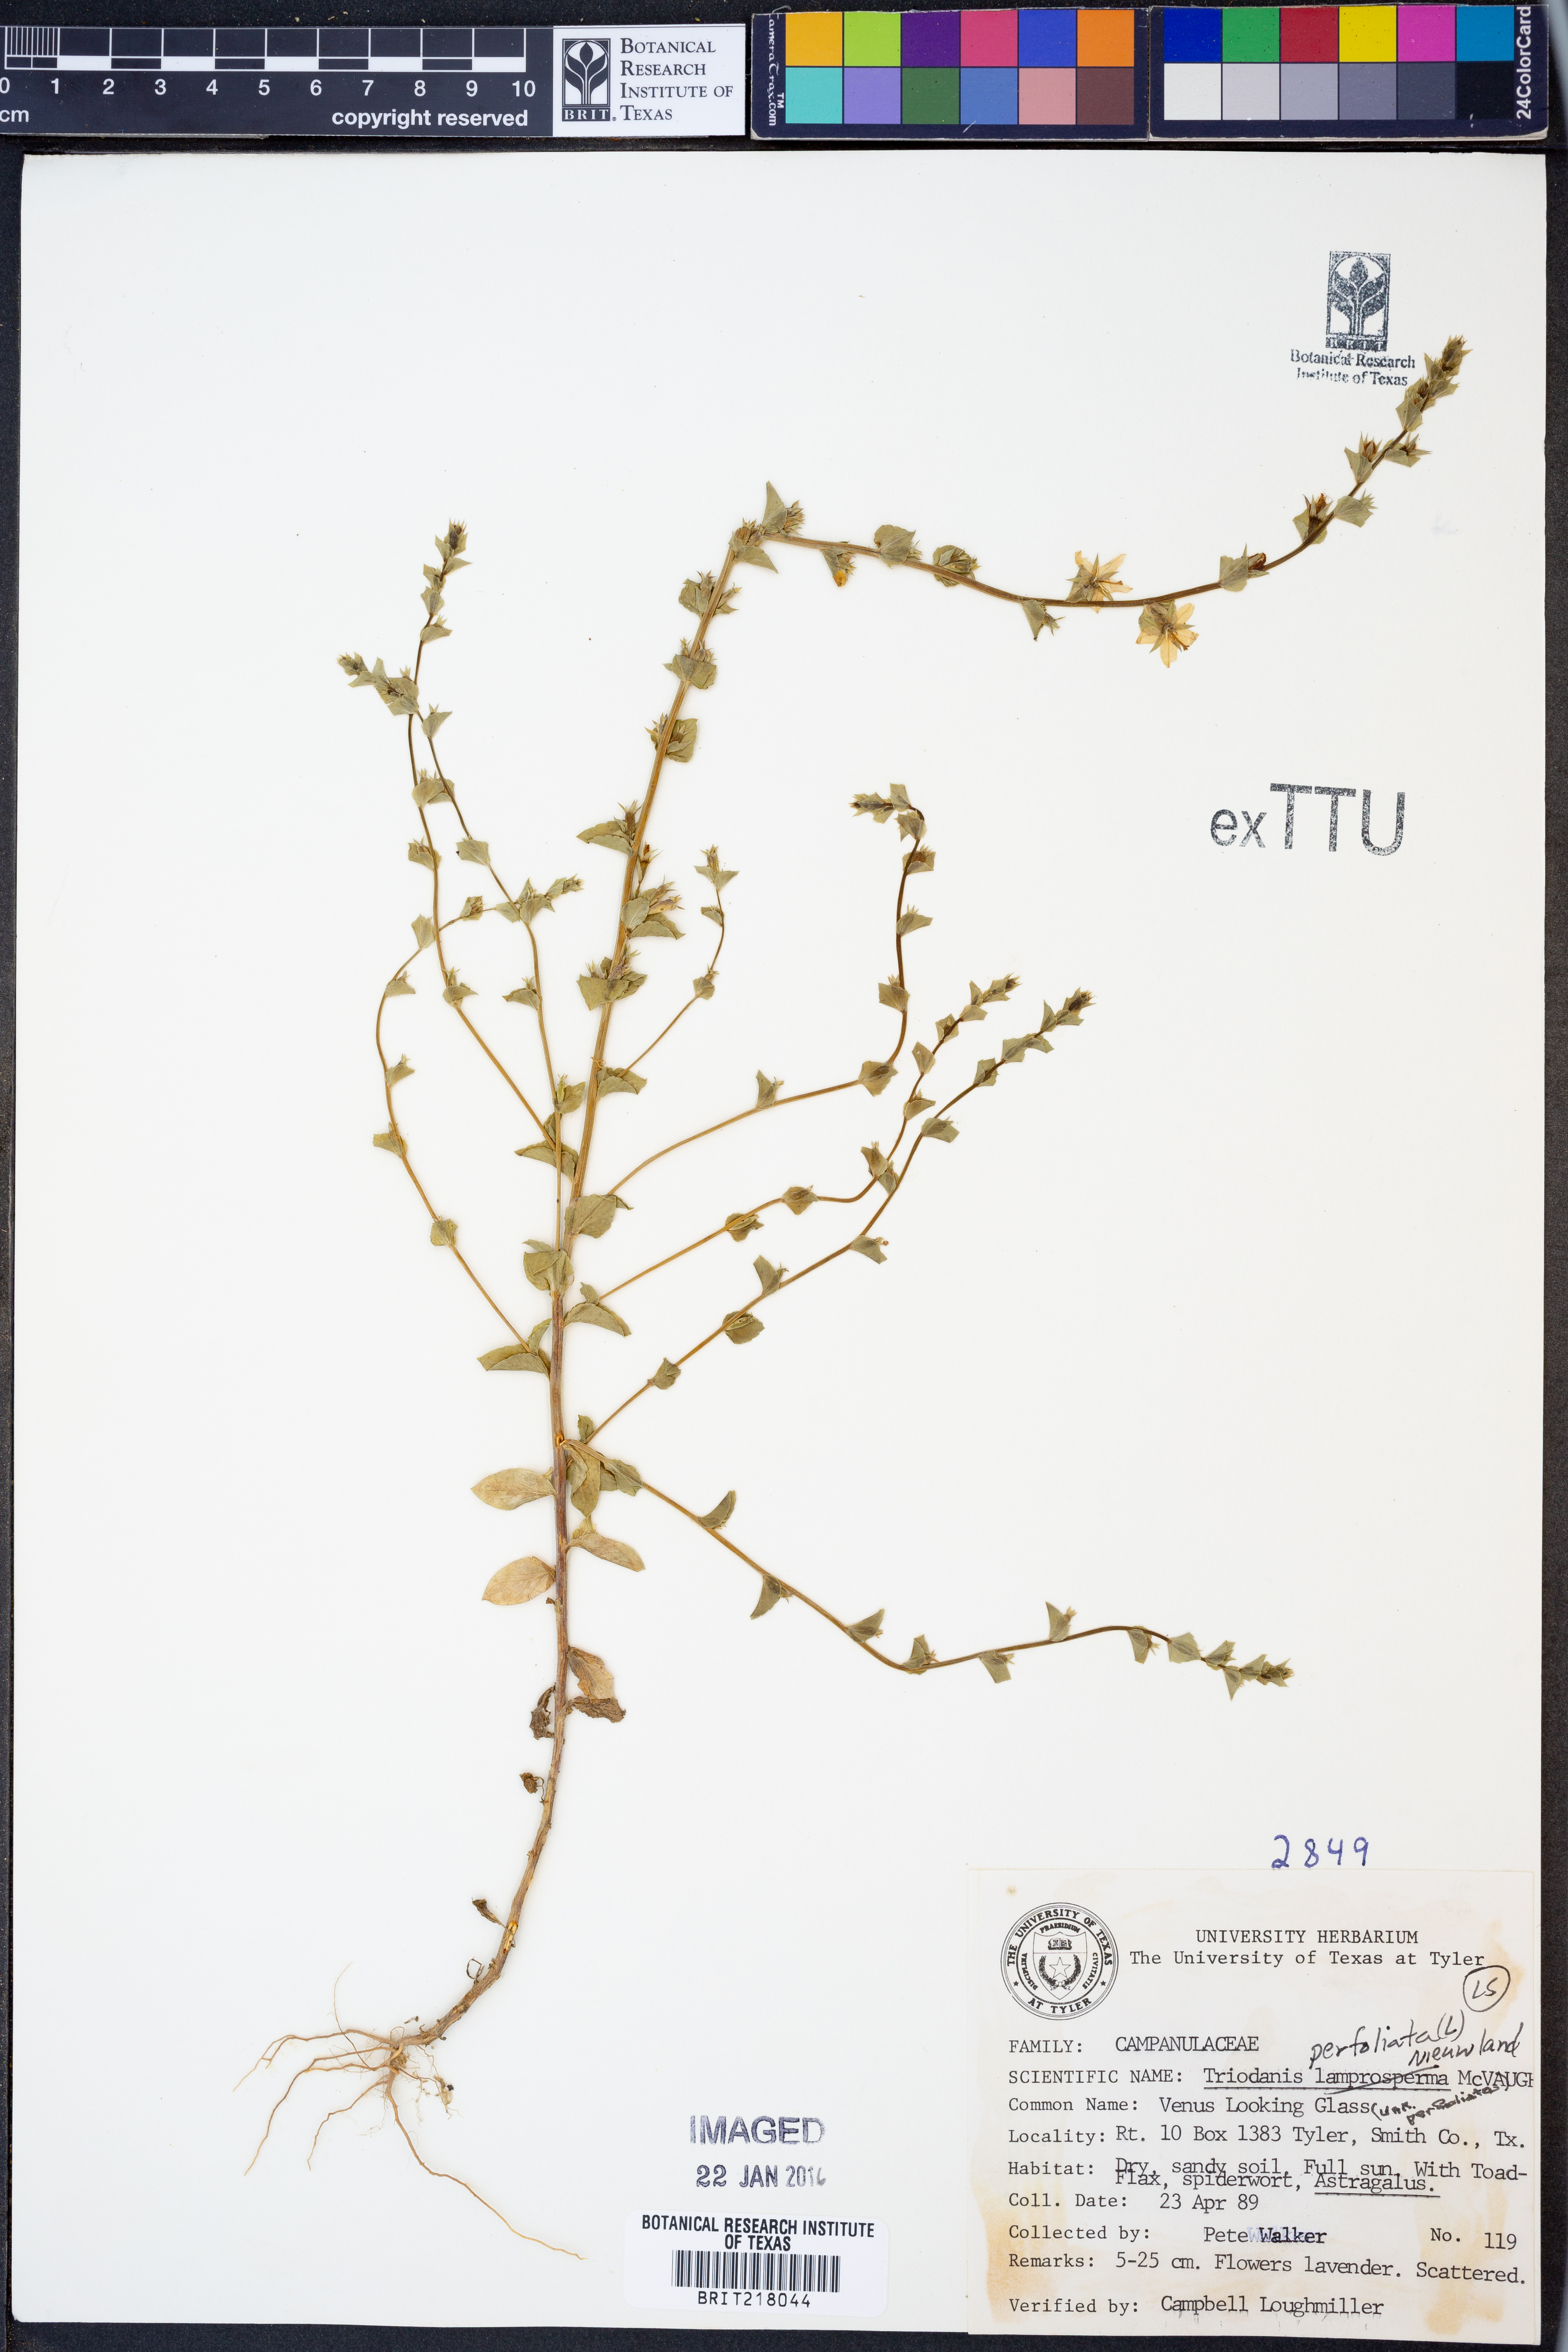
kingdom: Plantae
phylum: Tracheophyta
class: Magnoliopsida
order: Asterales
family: Campanulaceae
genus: Triodanis
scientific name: Triodanis perfoliata
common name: Clasping venus' looking-glass
